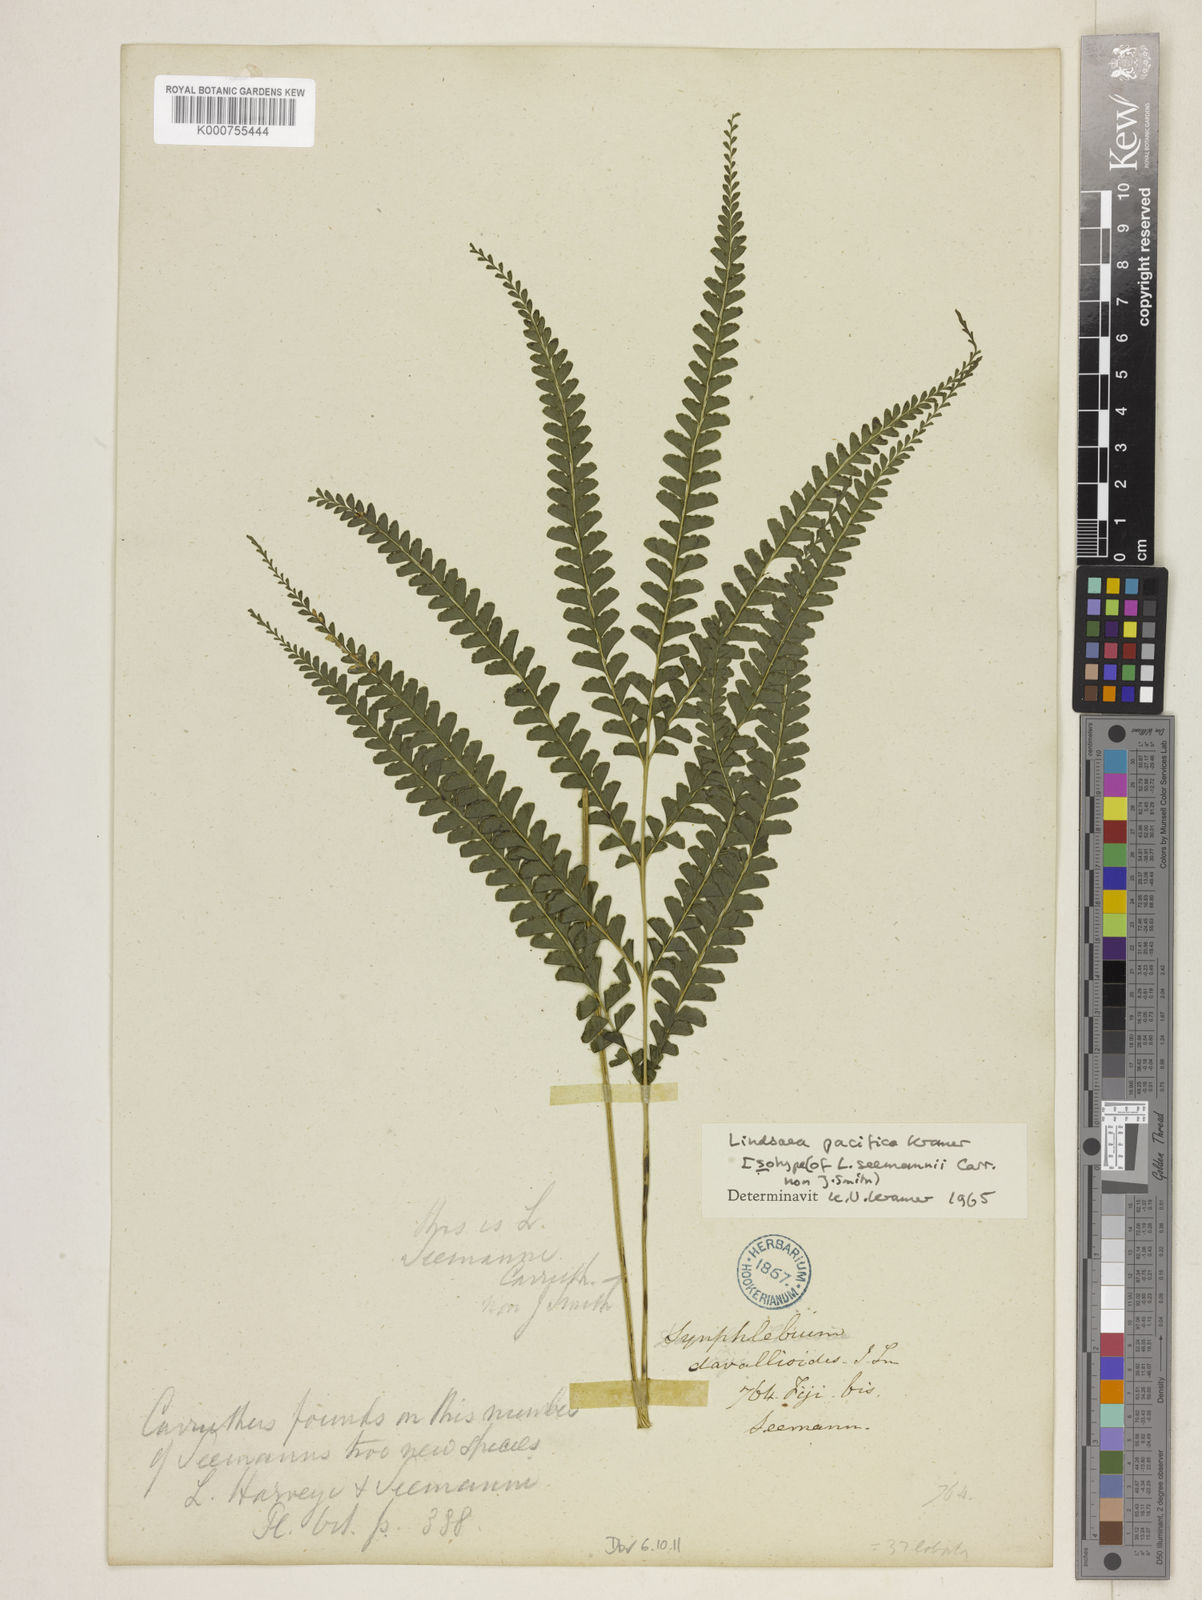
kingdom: Plantae
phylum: Tracheophyta
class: Polypodiopsida
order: Polypodiales
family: Lindsaeaceae
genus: Lindsaea
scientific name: Lindsaea pacifica
